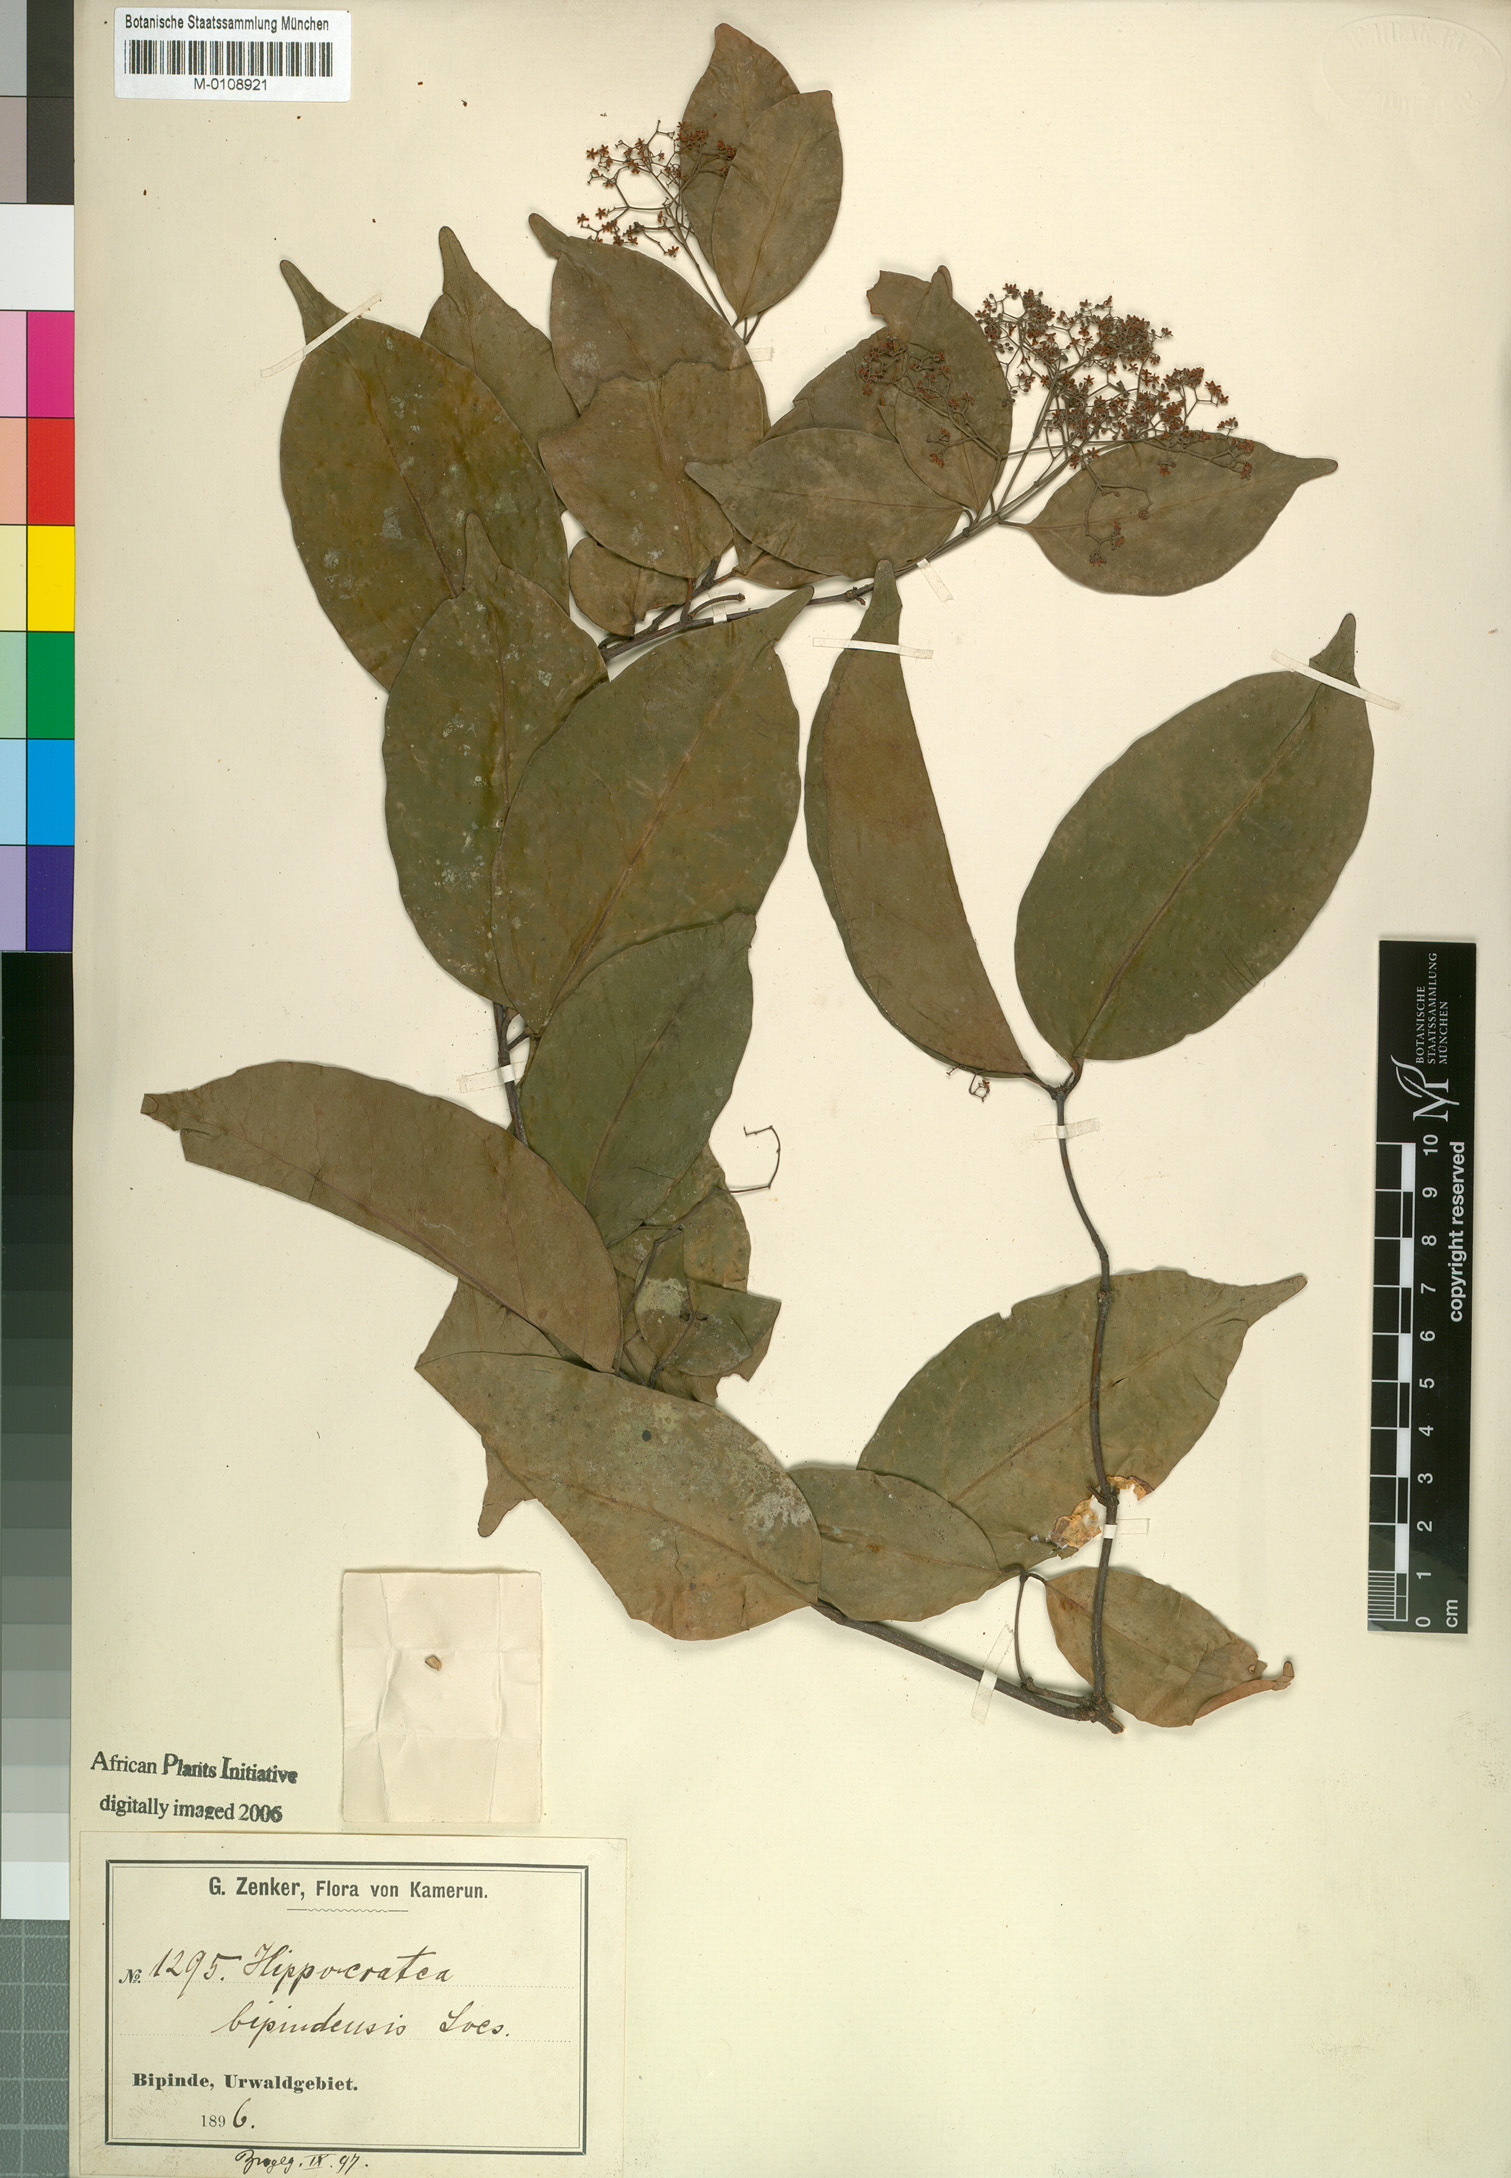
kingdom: Plantae
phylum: Tracheophyta
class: Magnoliopsida
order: Celastrales
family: Celastraceae
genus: Elachyptera
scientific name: Elachyptera bipindensis
